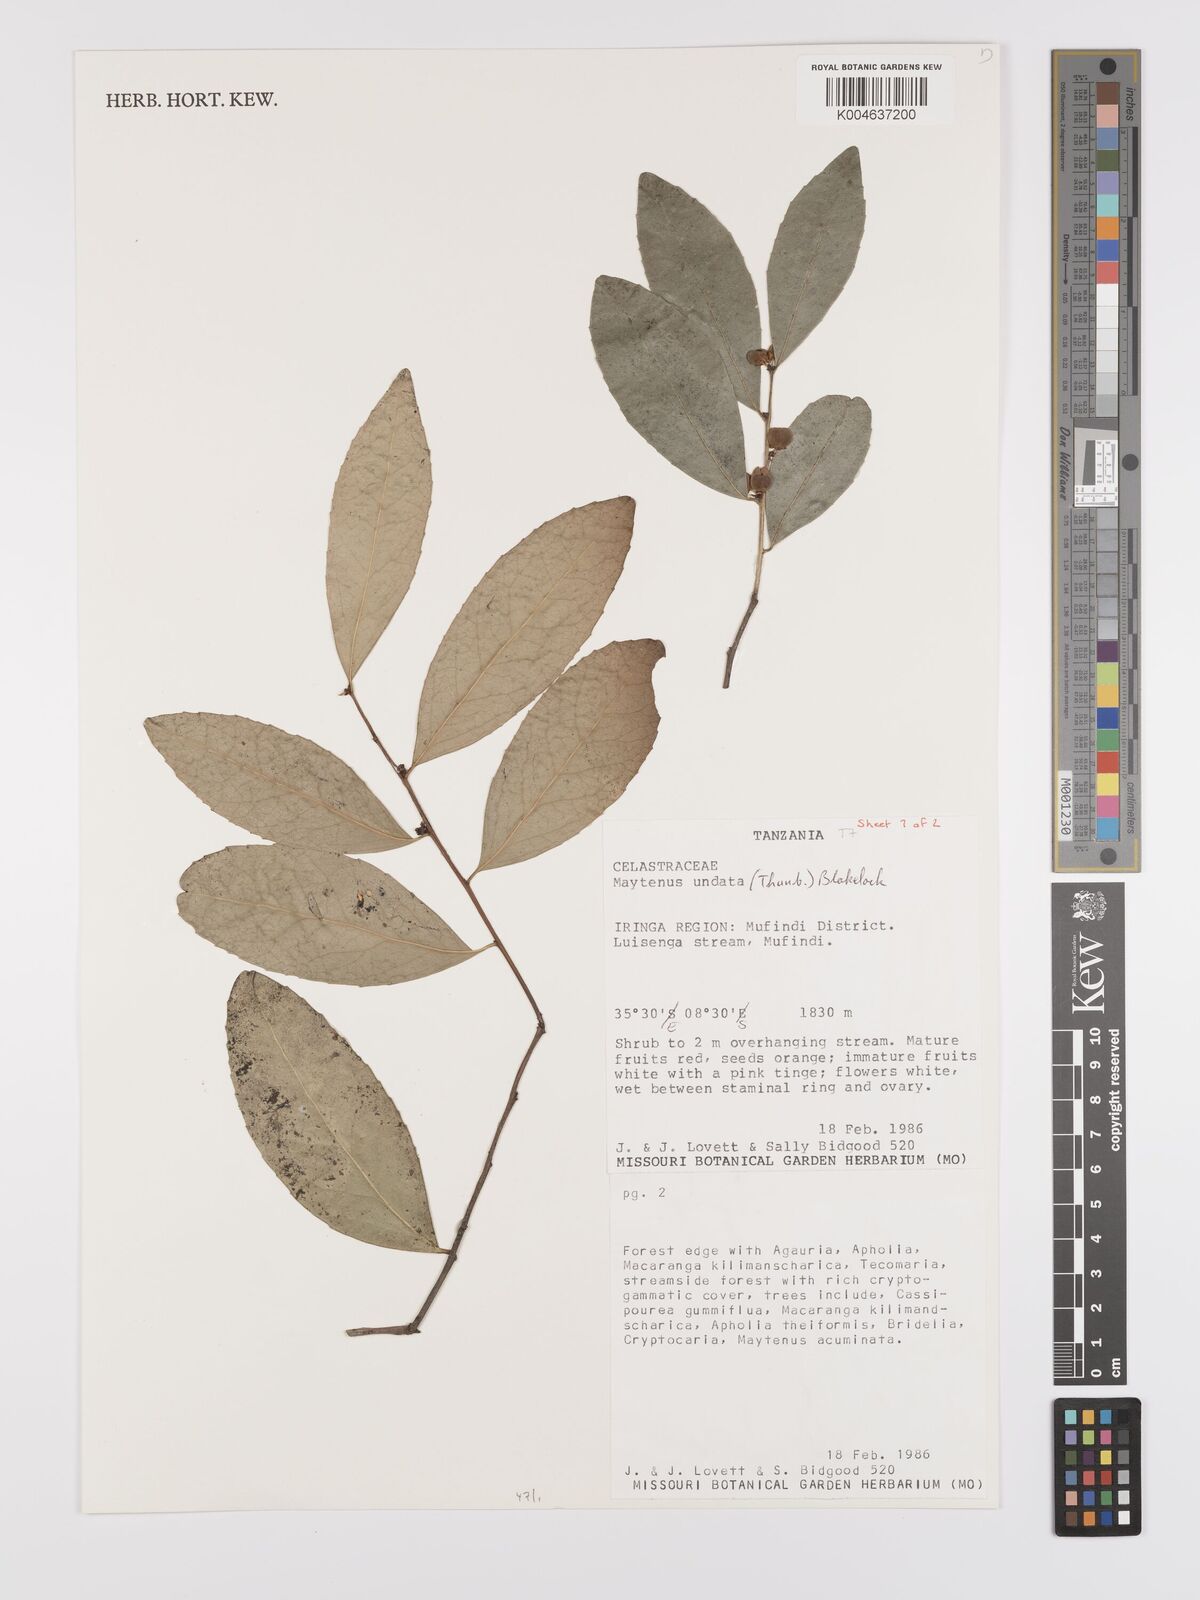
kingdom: Plantae
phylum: Tracheophyta
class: Magnoliopsida
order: Celastrales
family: Celastraceae
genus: Gymnosporia
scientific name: Gymnosporia undata
